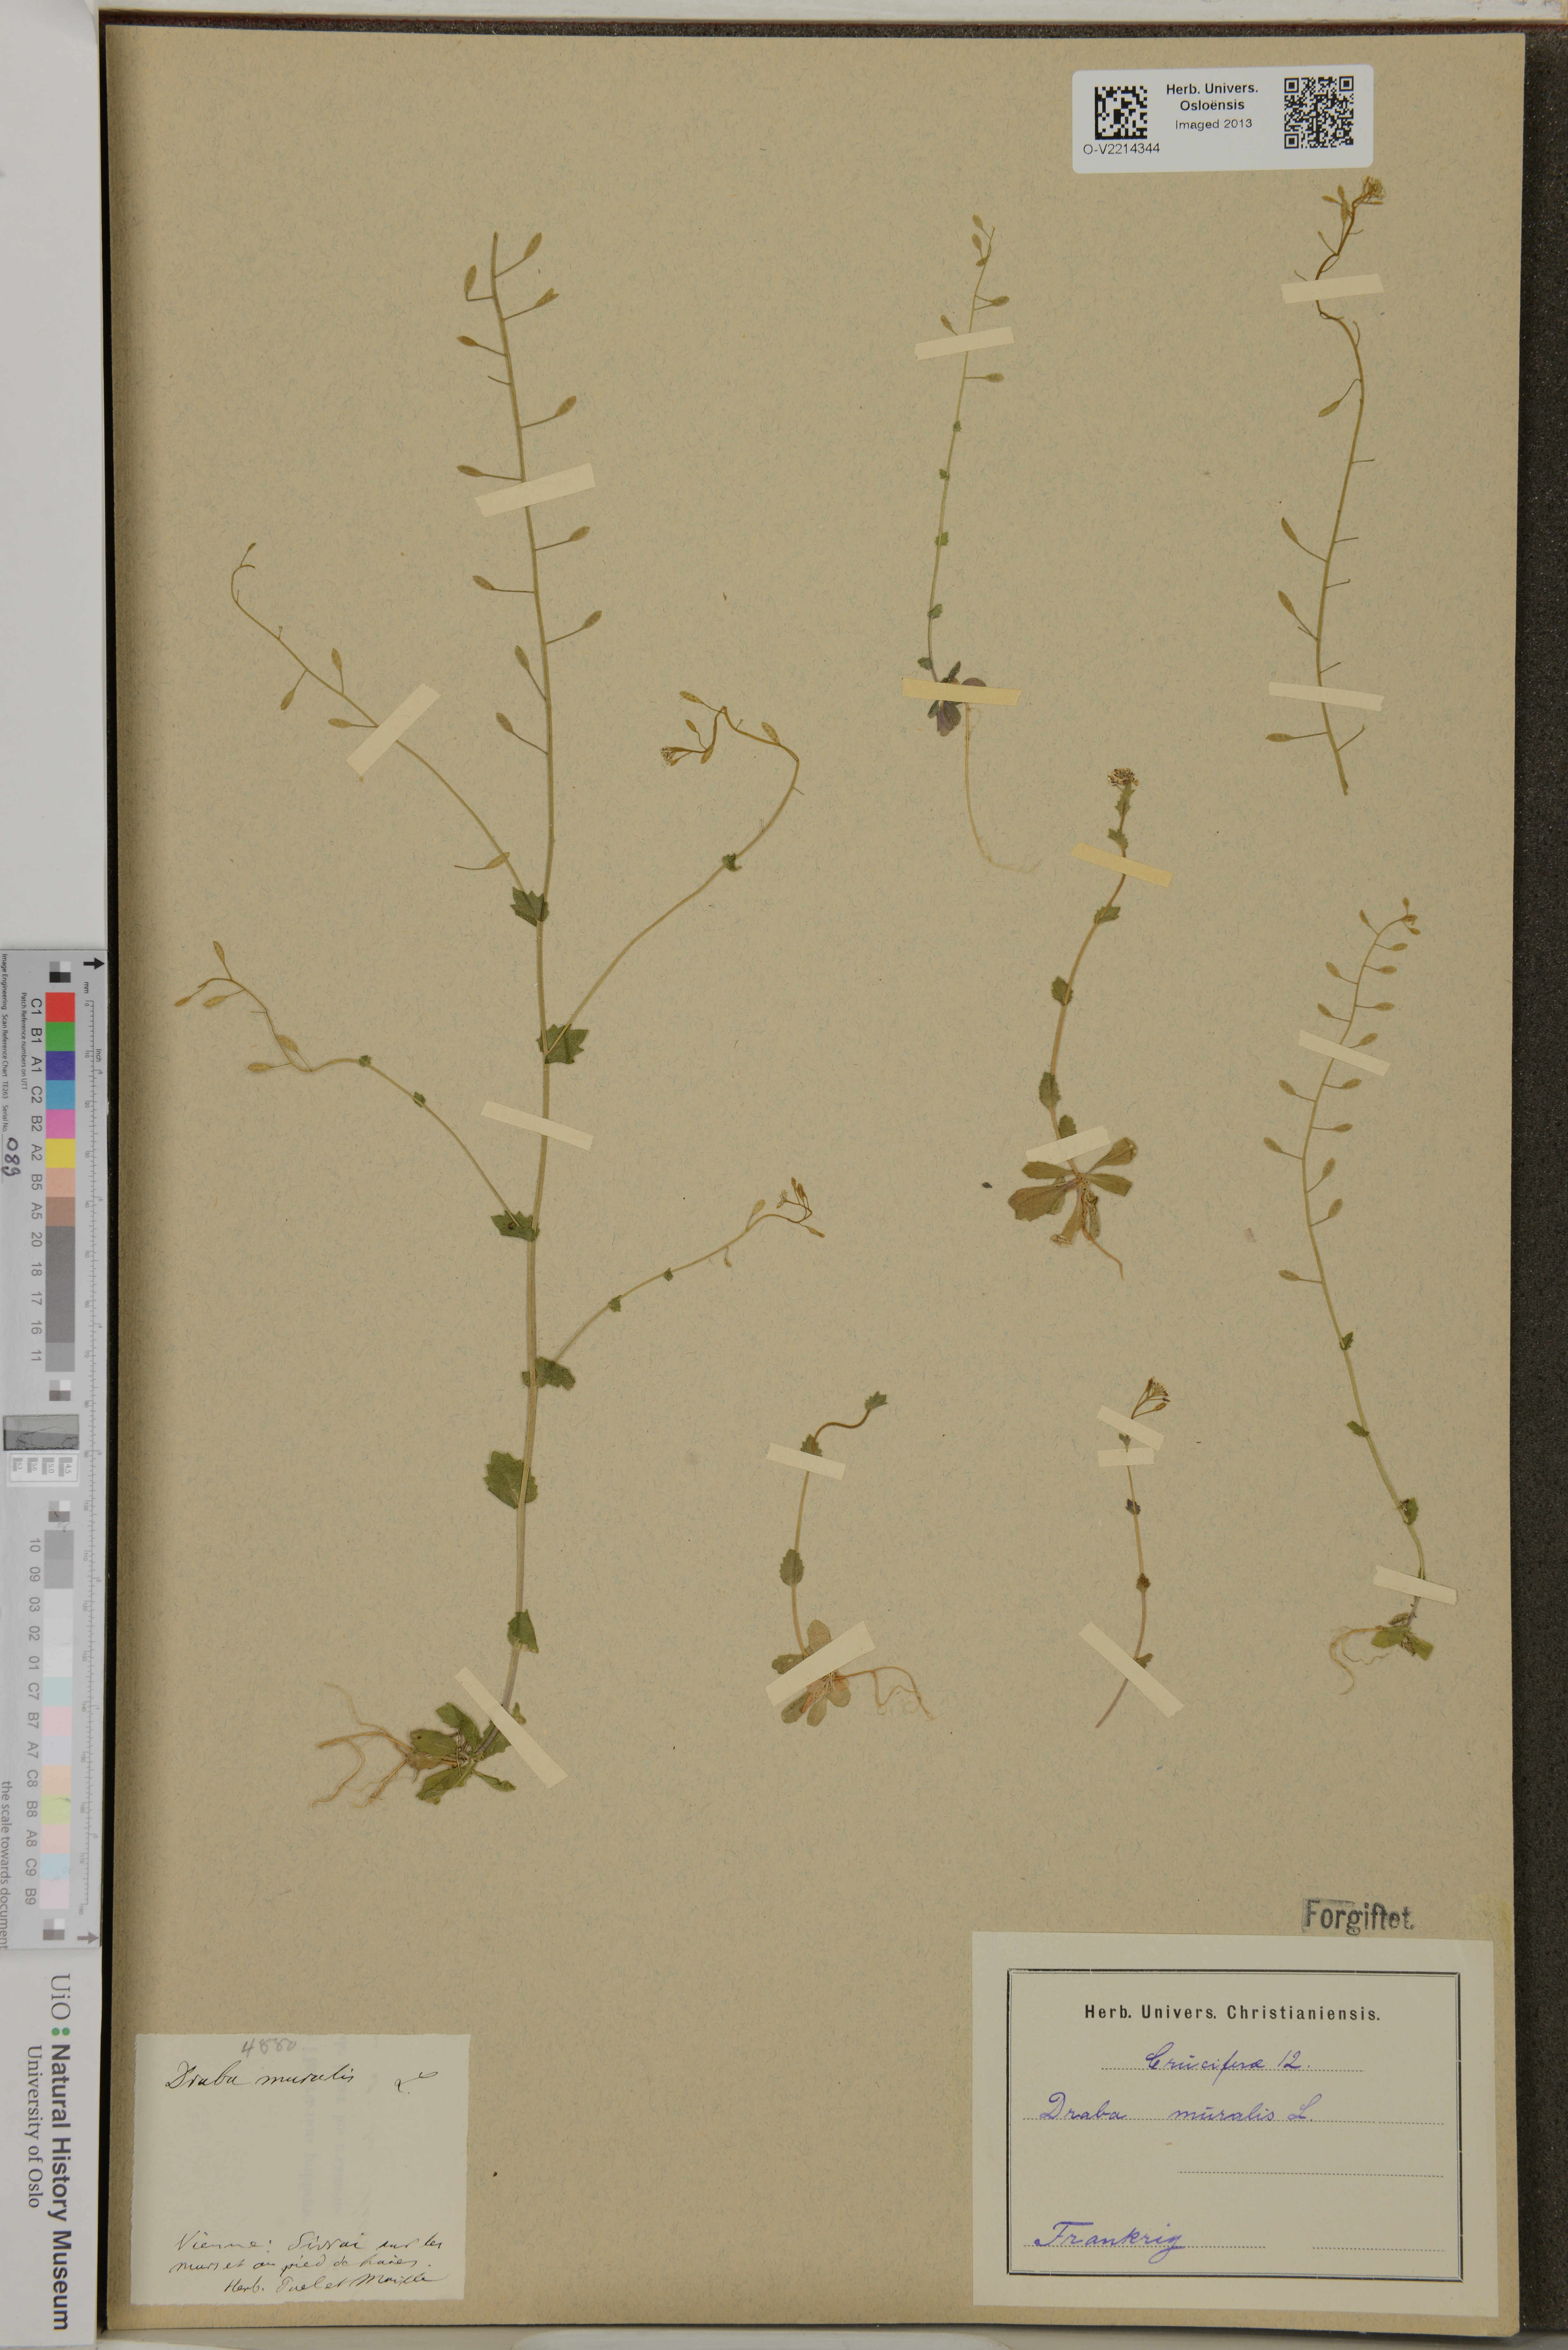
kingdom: Plantae
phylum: Tracheophyta
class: Magnoliopsida
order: Brassicales
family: Brassicaceae
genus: Drabella
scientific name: Drabella muralis
